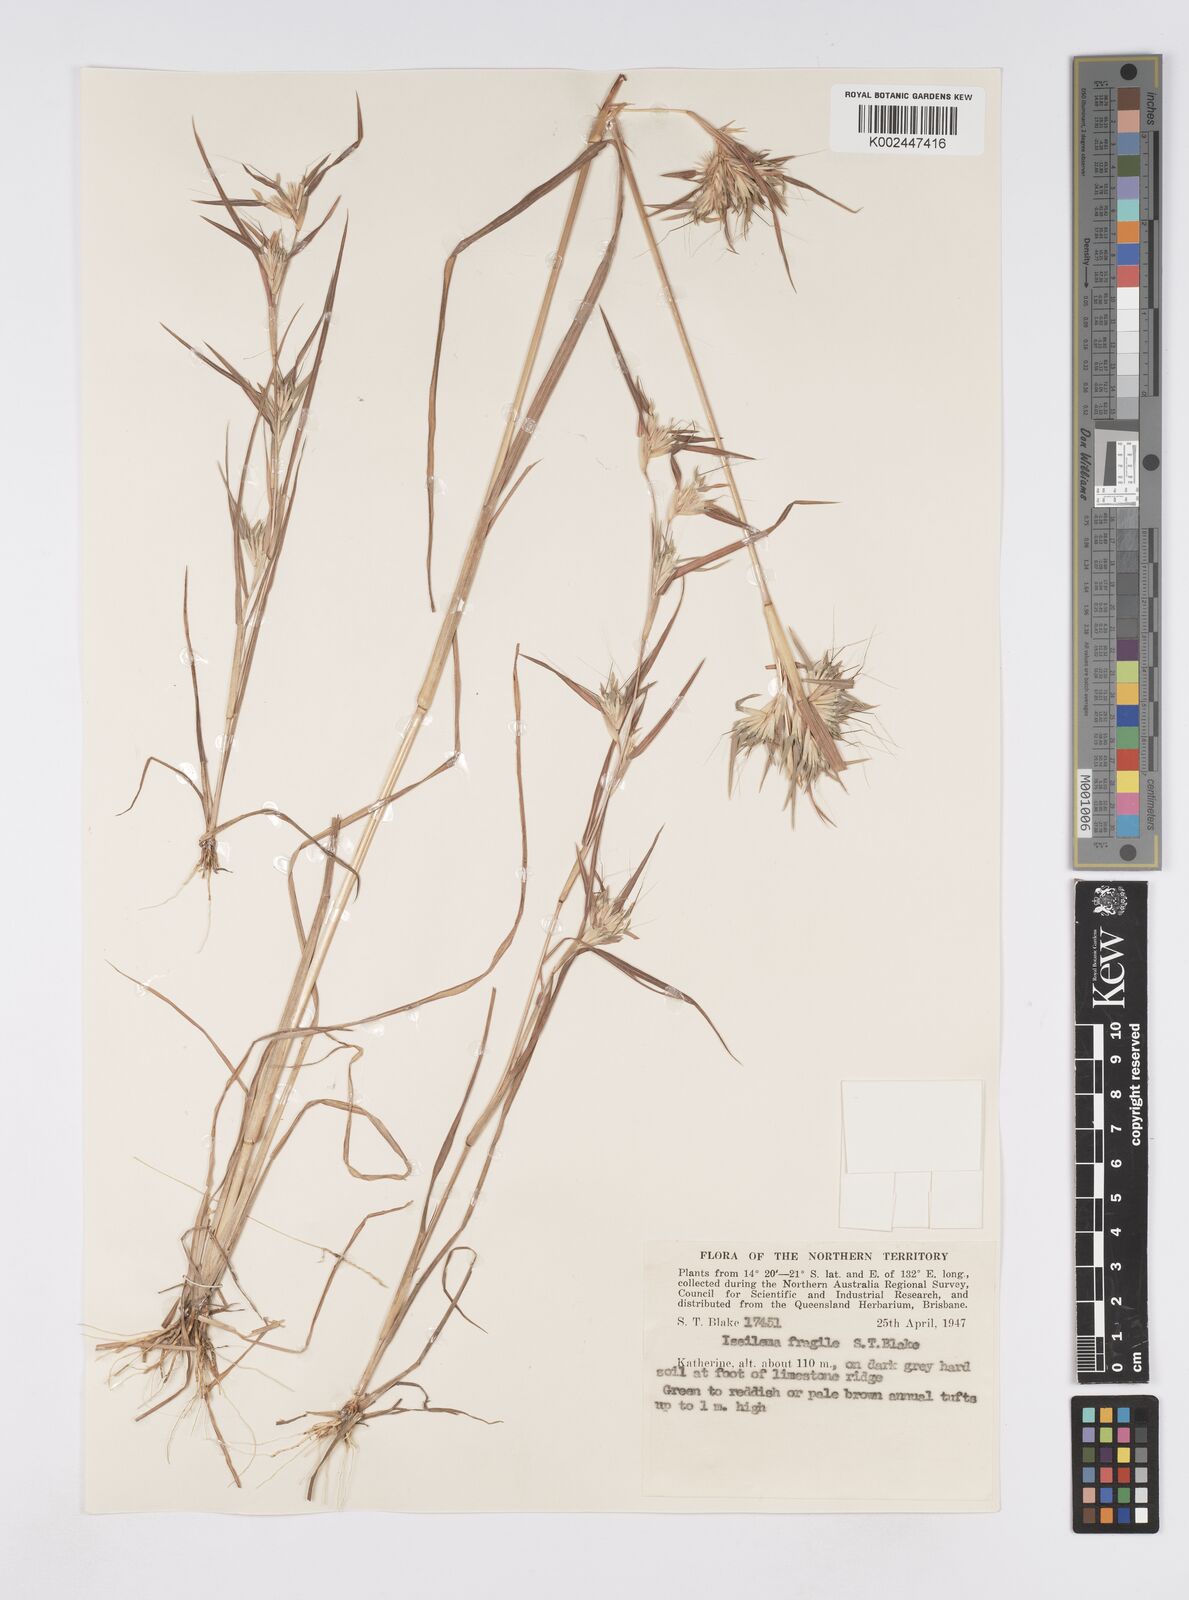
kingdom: Plantae
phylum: Tracheophyta
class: Liliopsida
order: Poales
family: Poaceae
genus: Iseilema
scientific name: Iseilema fragile
